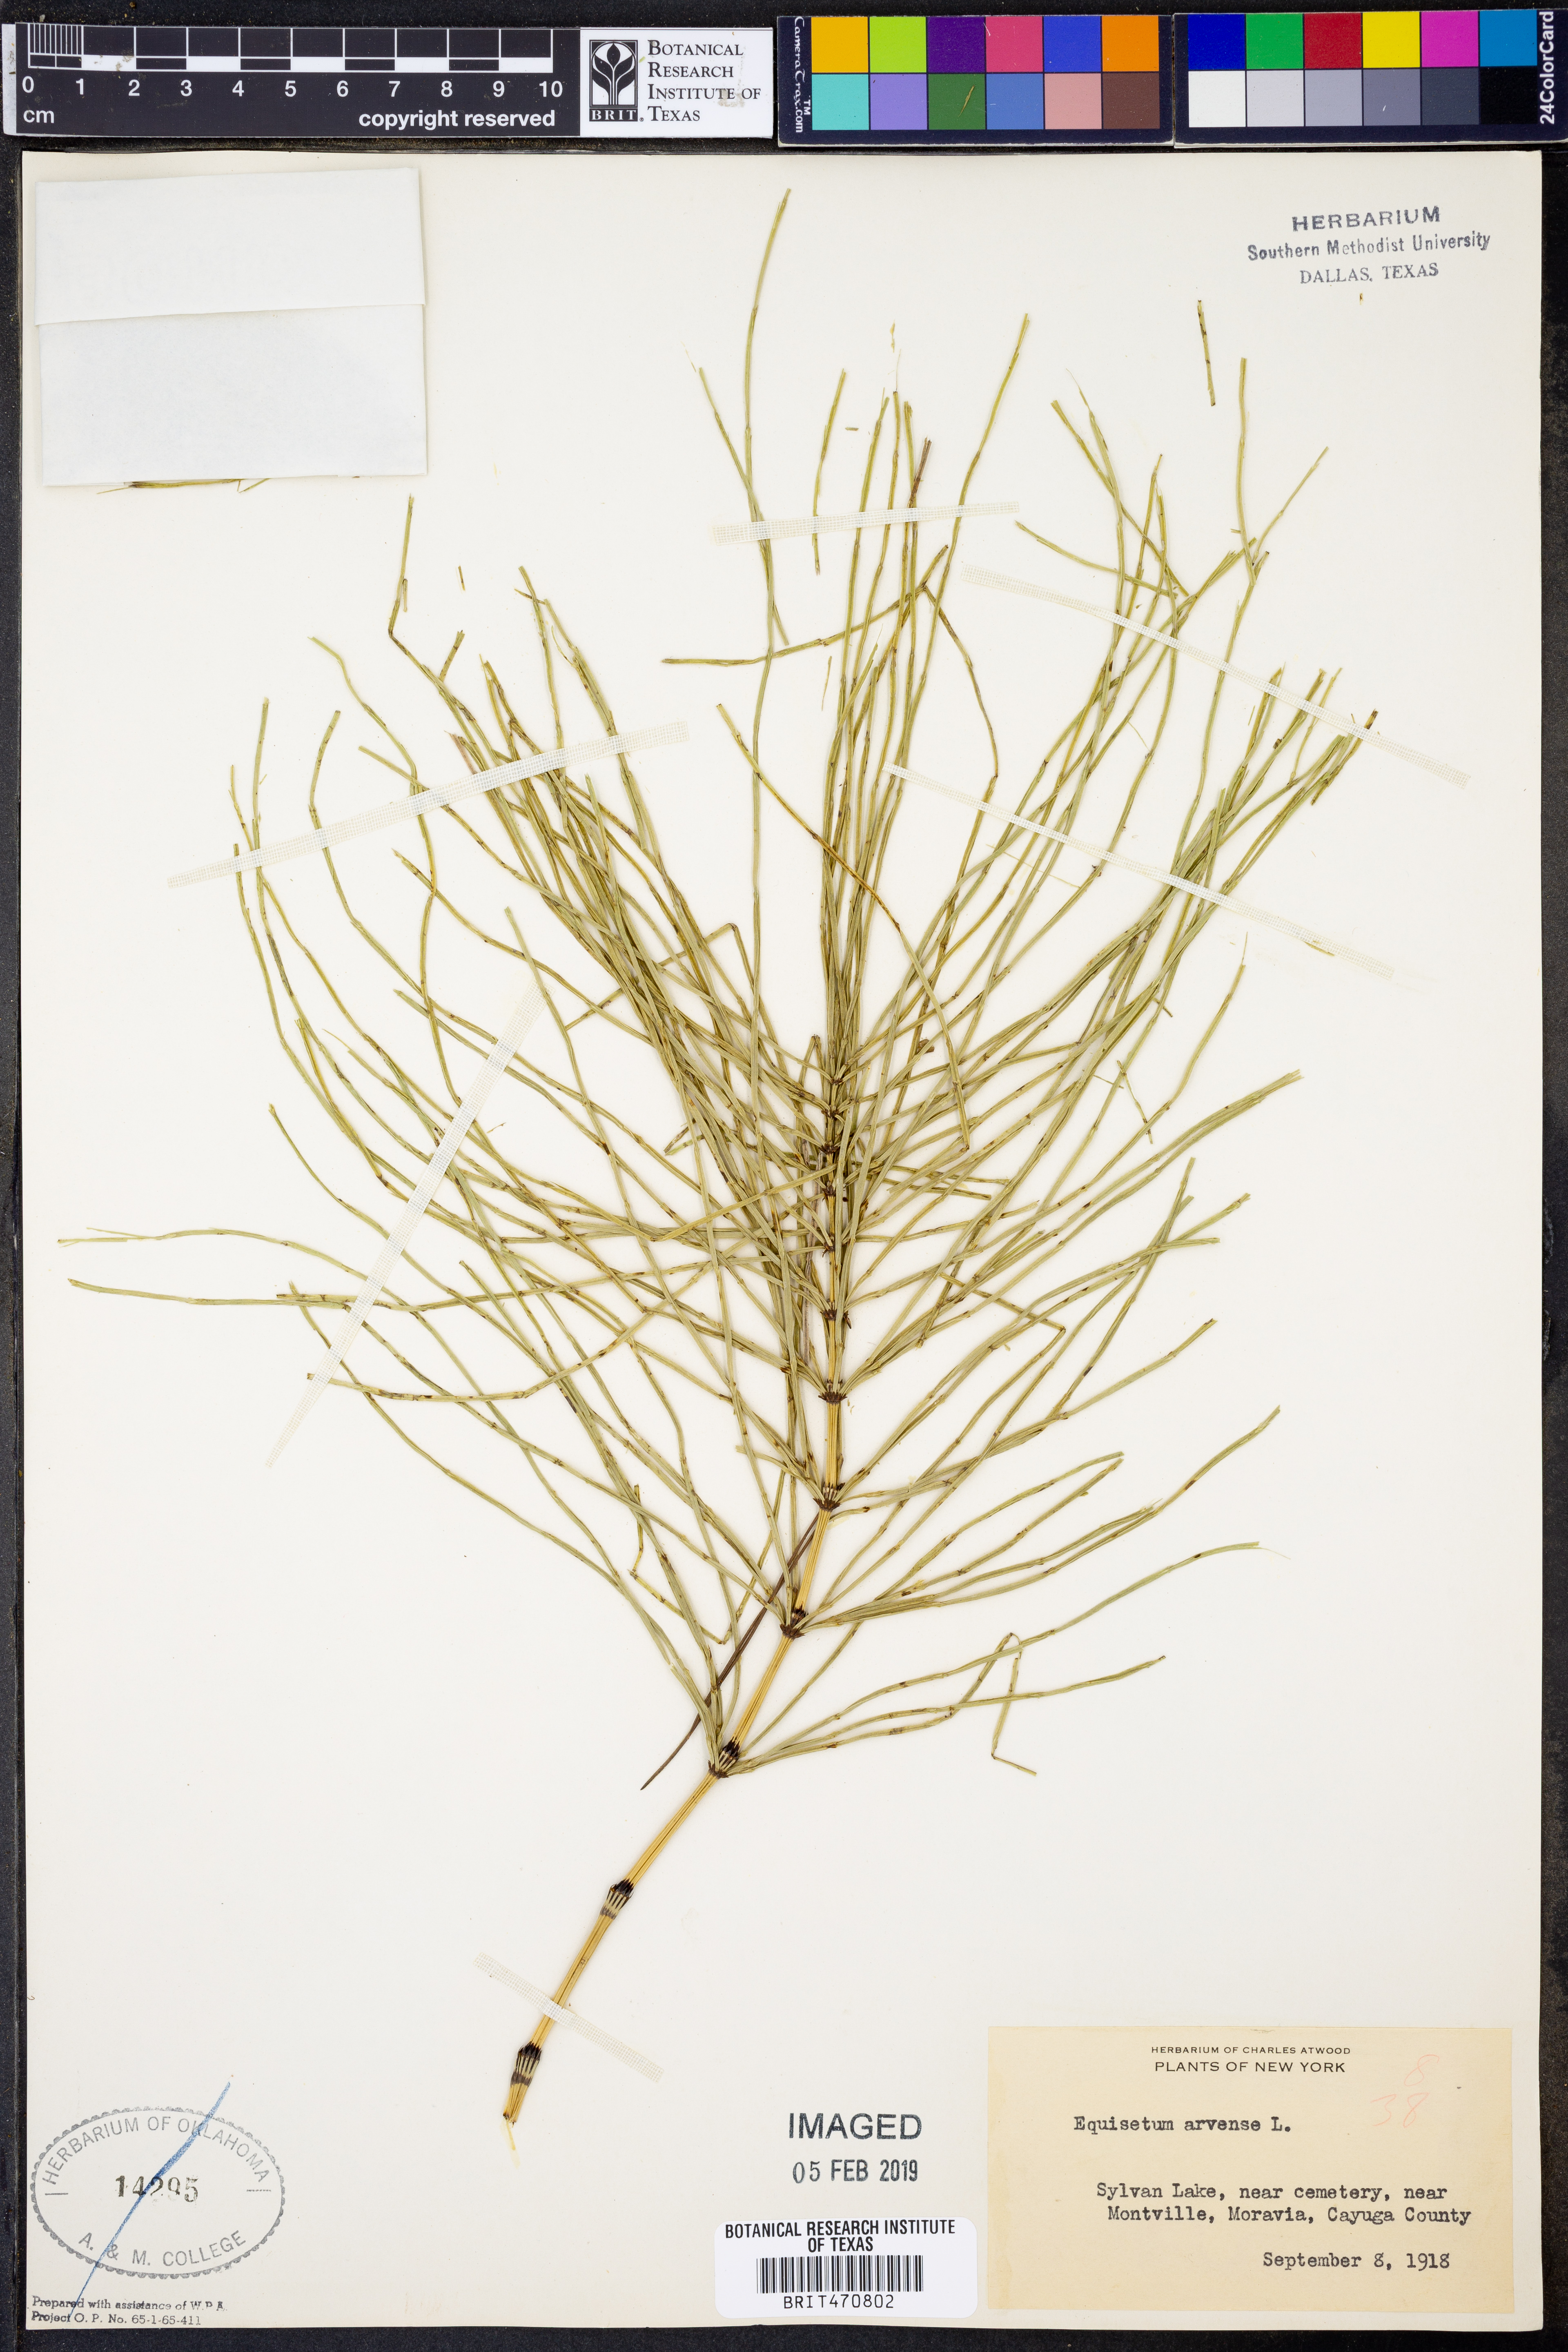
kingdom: Plantae
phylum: Tracheophyta
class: Polypodiopsida
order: Equisetales
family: Equisetaceae
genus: Equisetum
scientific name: Equisetum arvense
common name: Field horsetail
